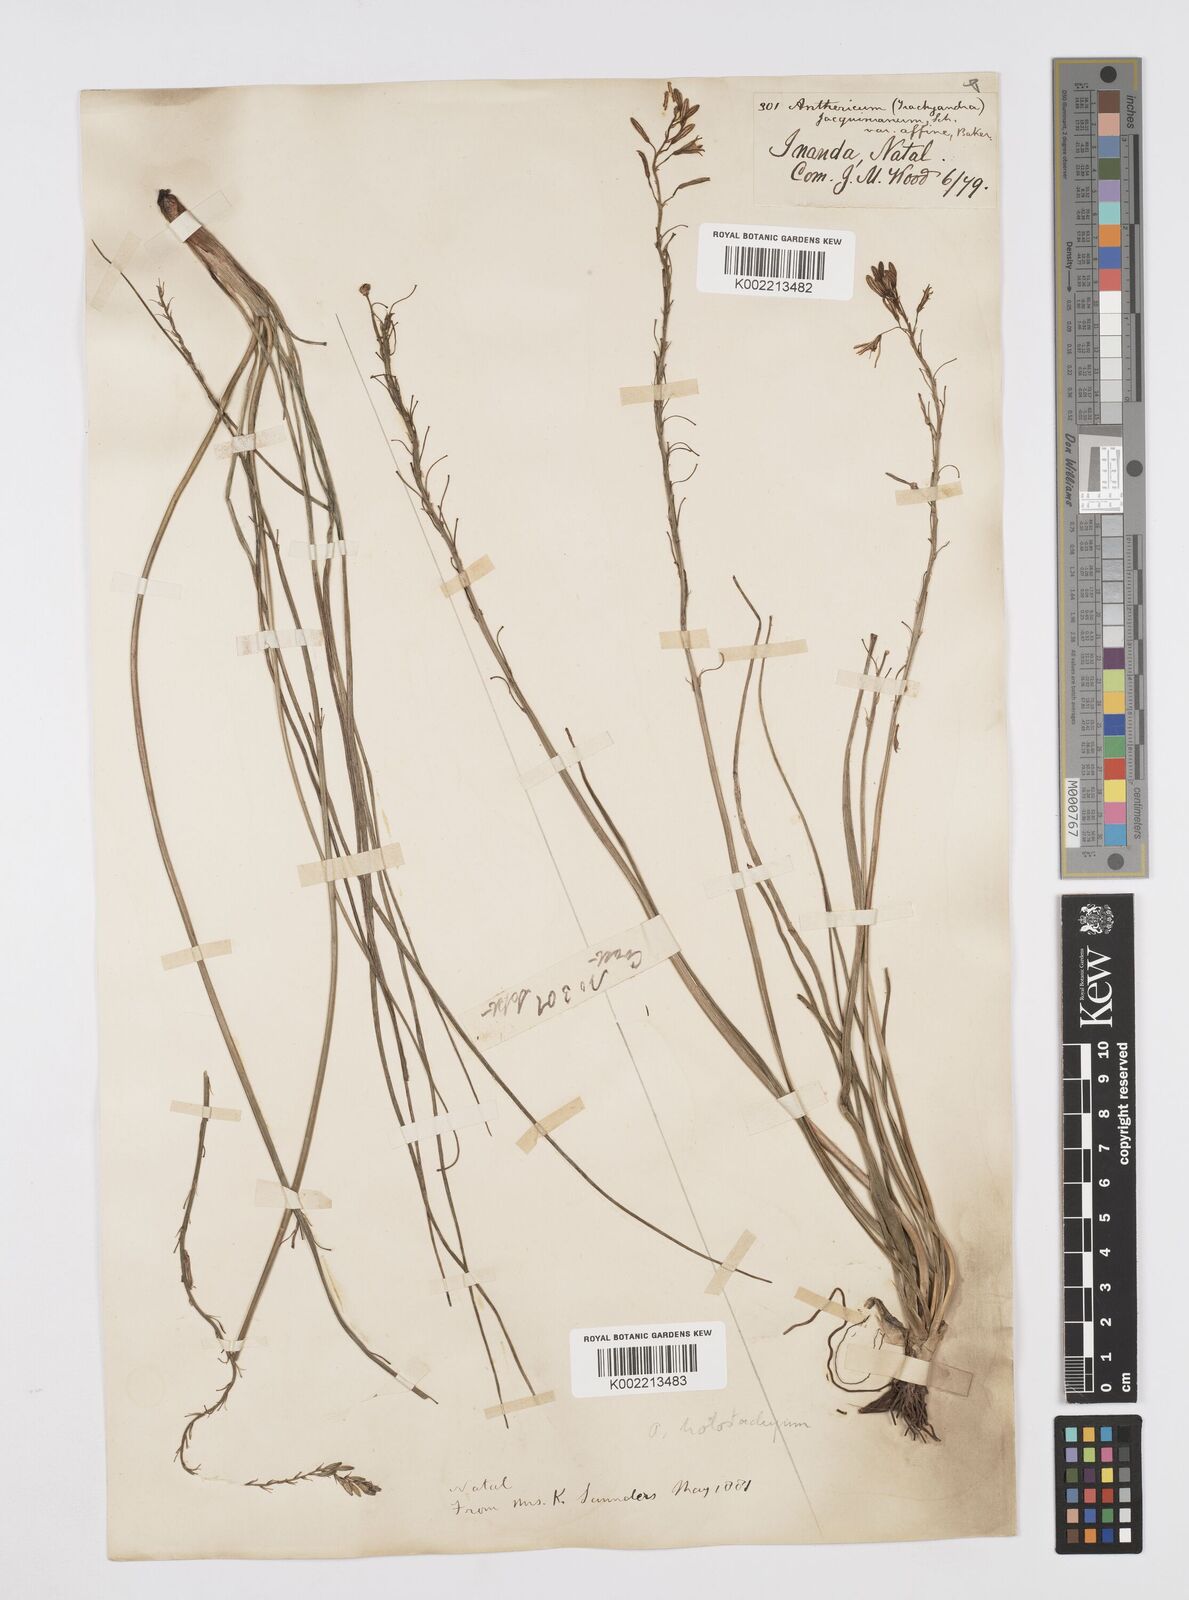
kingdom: Plantae
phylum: Tracheophyta
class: Liliopsida
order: Asparagales
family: Asphodelaceae
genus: Trachyandra
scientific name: Trachyandra saltii
